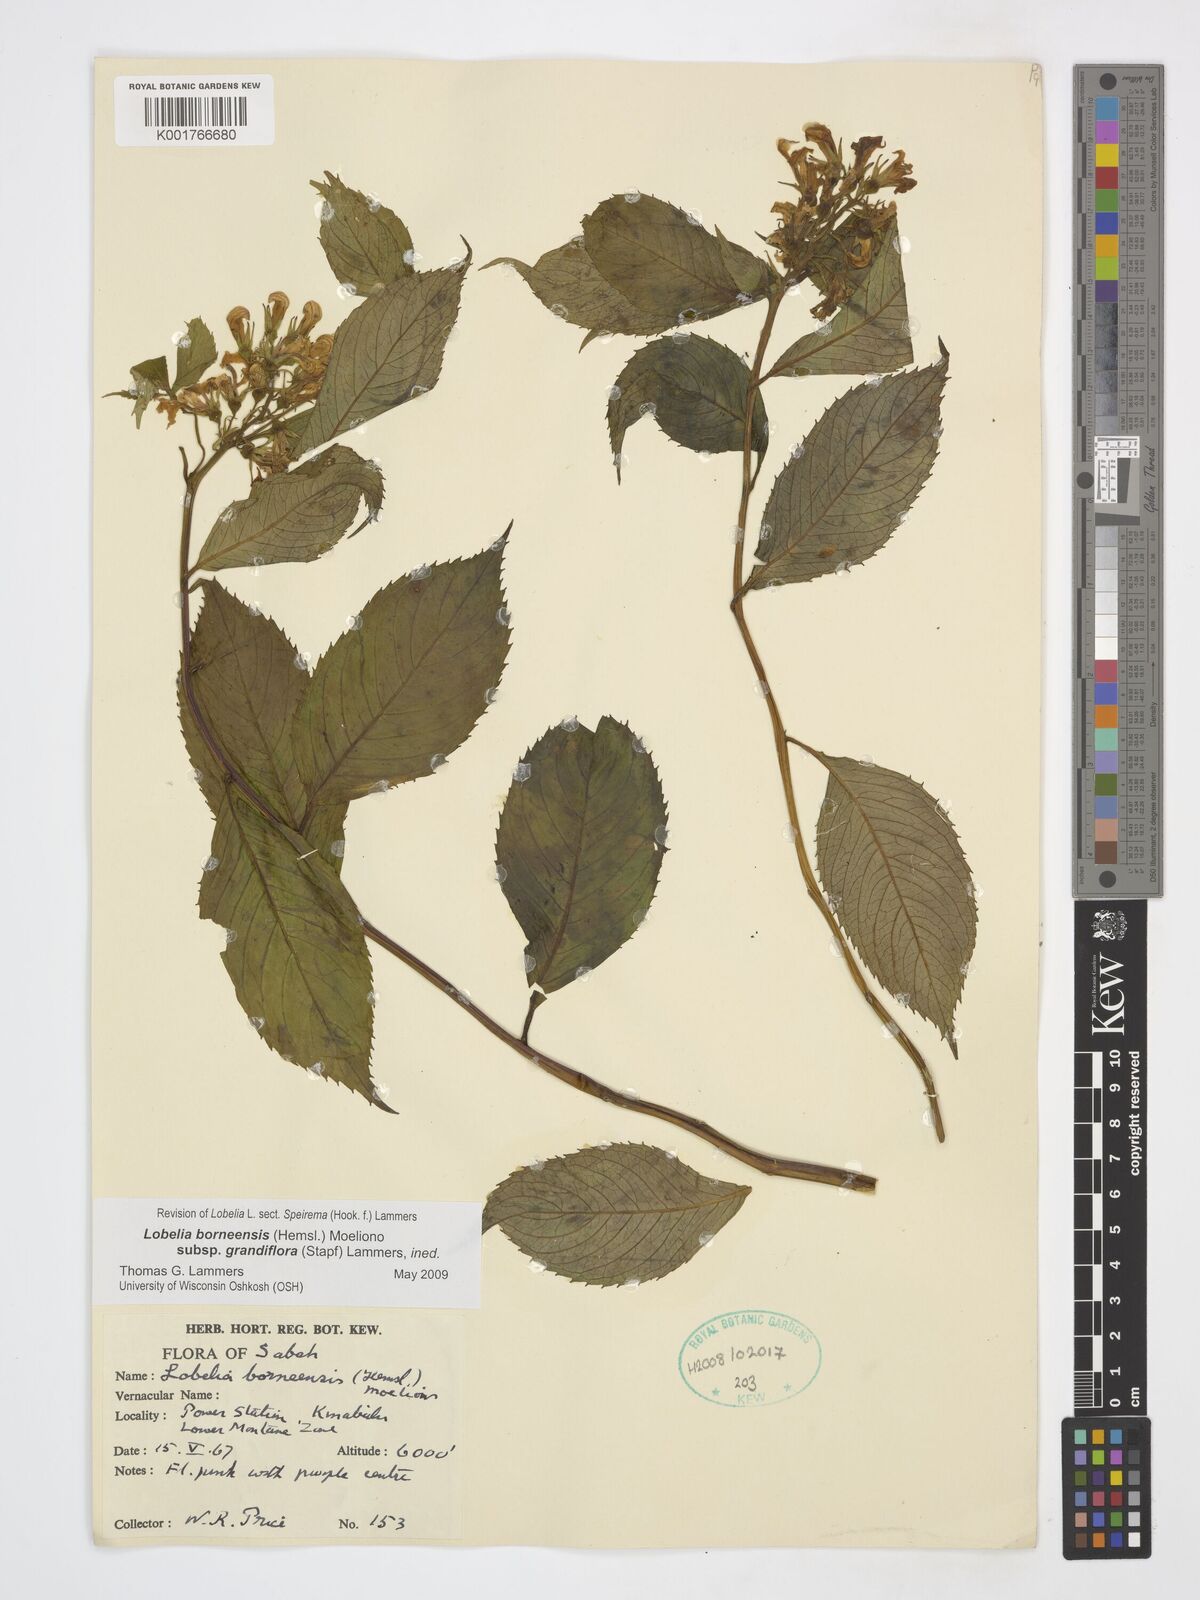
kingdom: Plantae
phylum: Tracheophyta
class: Magnoliopsida
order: Asterales
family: Campanulaceae
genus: Lobelia
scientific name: Lobelia borneensis
